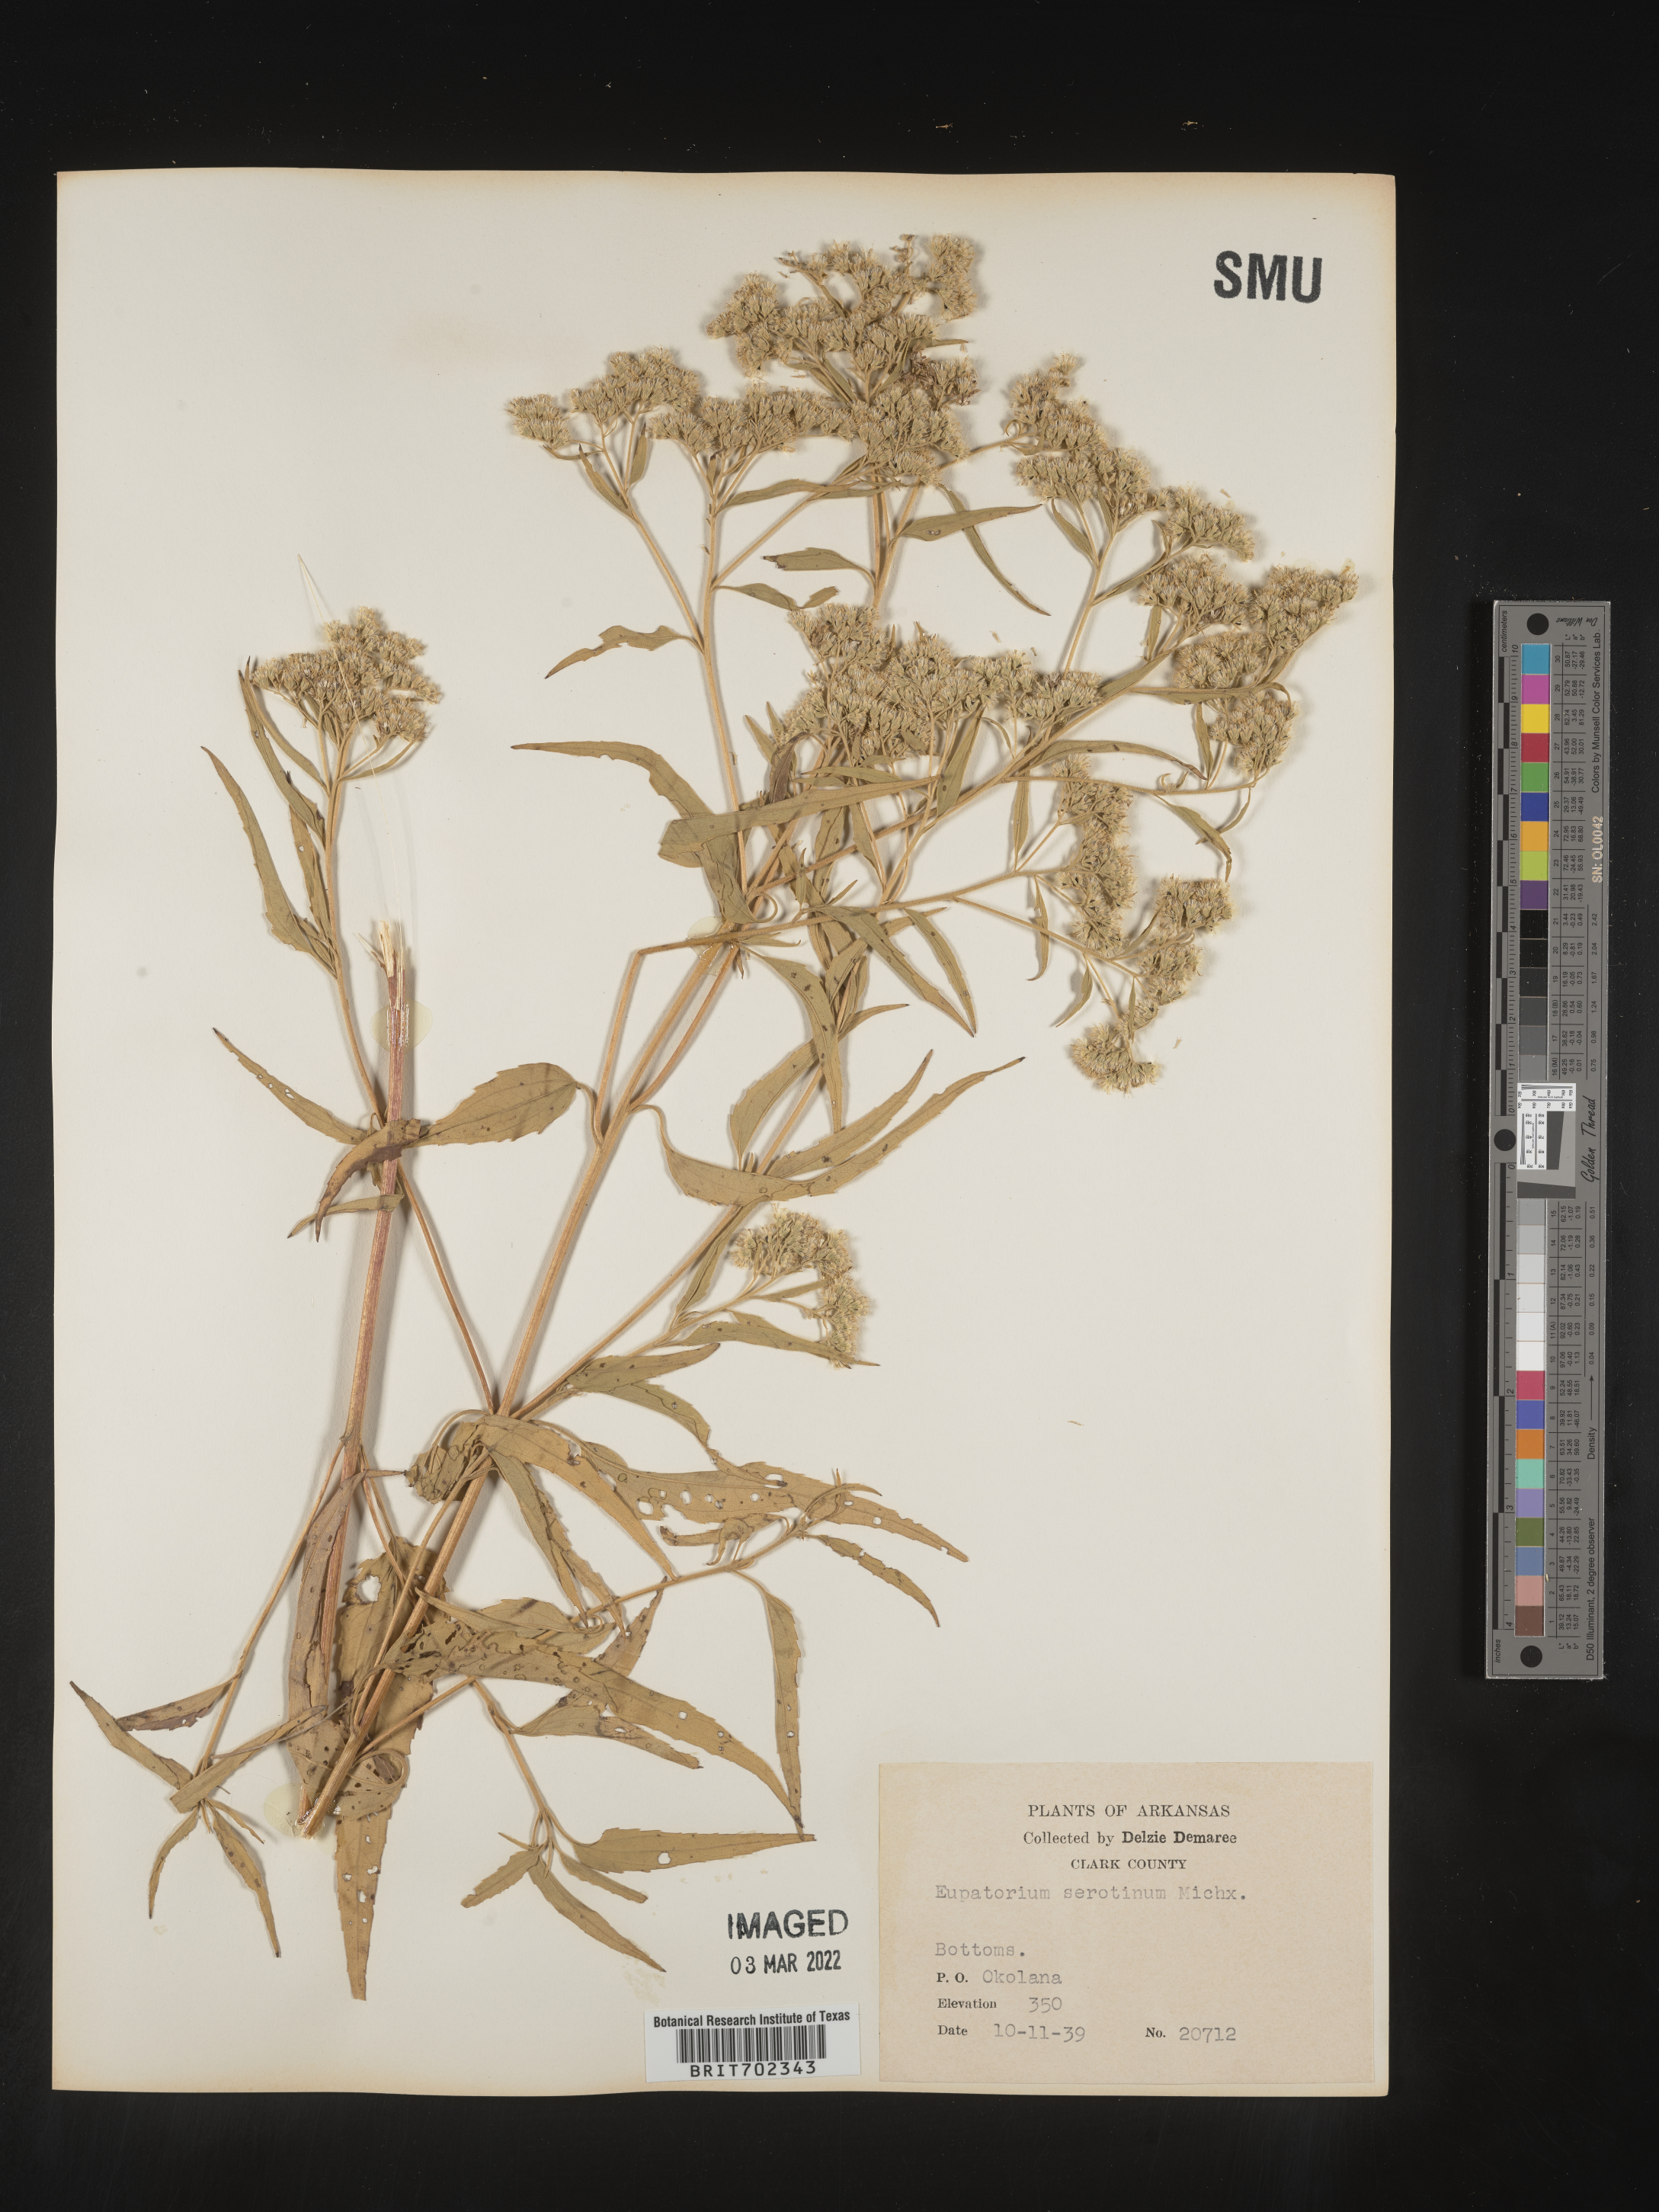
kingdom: Plantae
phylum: Tracheophyta
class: Magnoliopsida
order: Asterales
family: Asteraceae
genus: Eupatorium
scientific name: Eupatorium serotinum
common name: Late boneset
